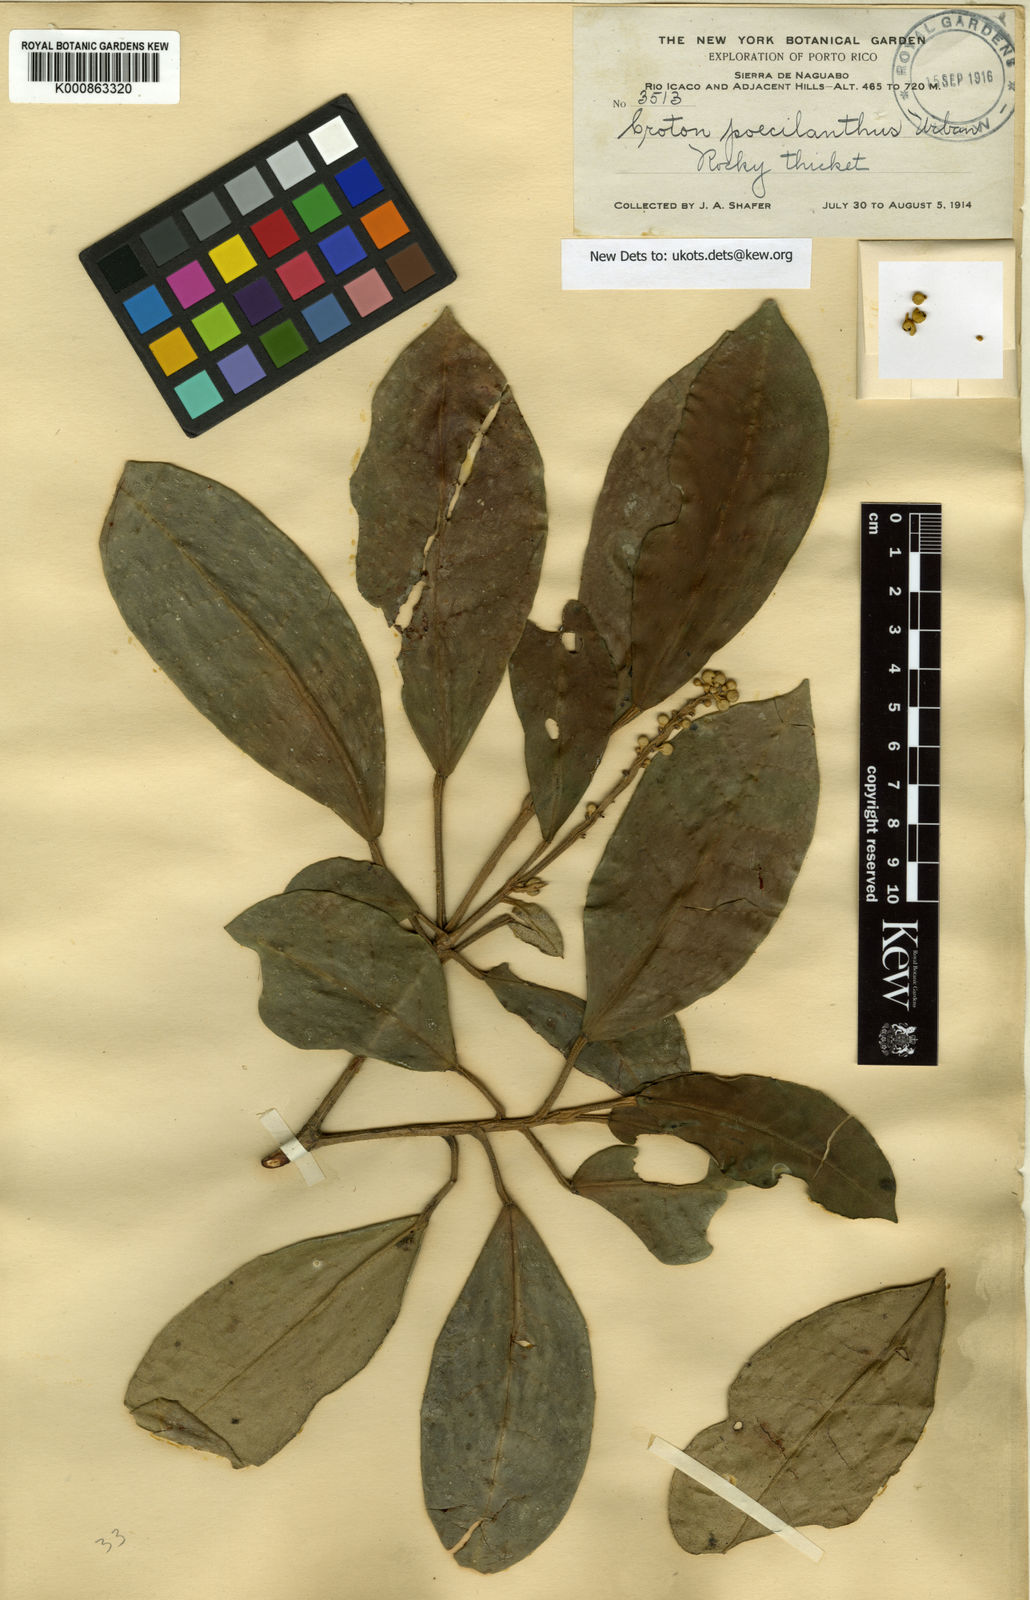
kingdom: Plantae
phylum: Tracheophyta
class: Magnoliopsida
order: Malpighiales
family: Euphorbiaceae
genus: Croton
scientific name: Croton poecilanthus
